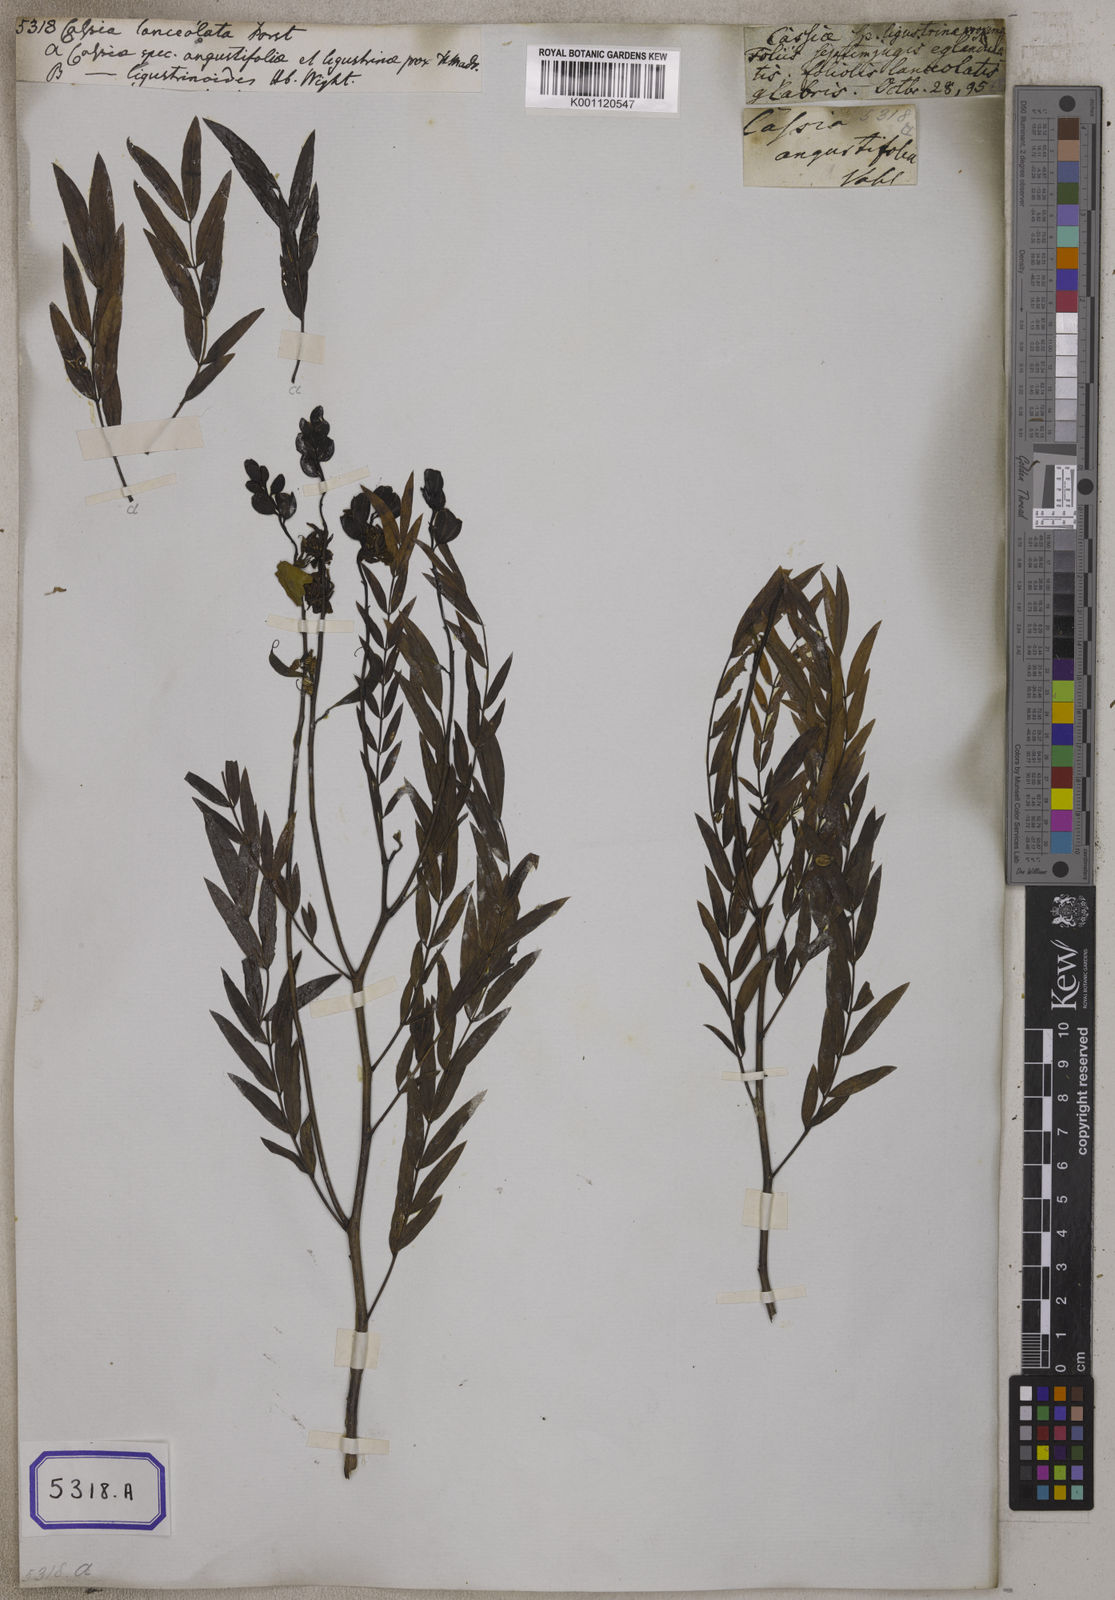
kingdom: Plantae
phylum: Tracheophyta
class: Magnoliopsida
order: Fabales
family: Fabaceae
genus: Senna
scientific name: Senna alexandrina
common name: True senna
